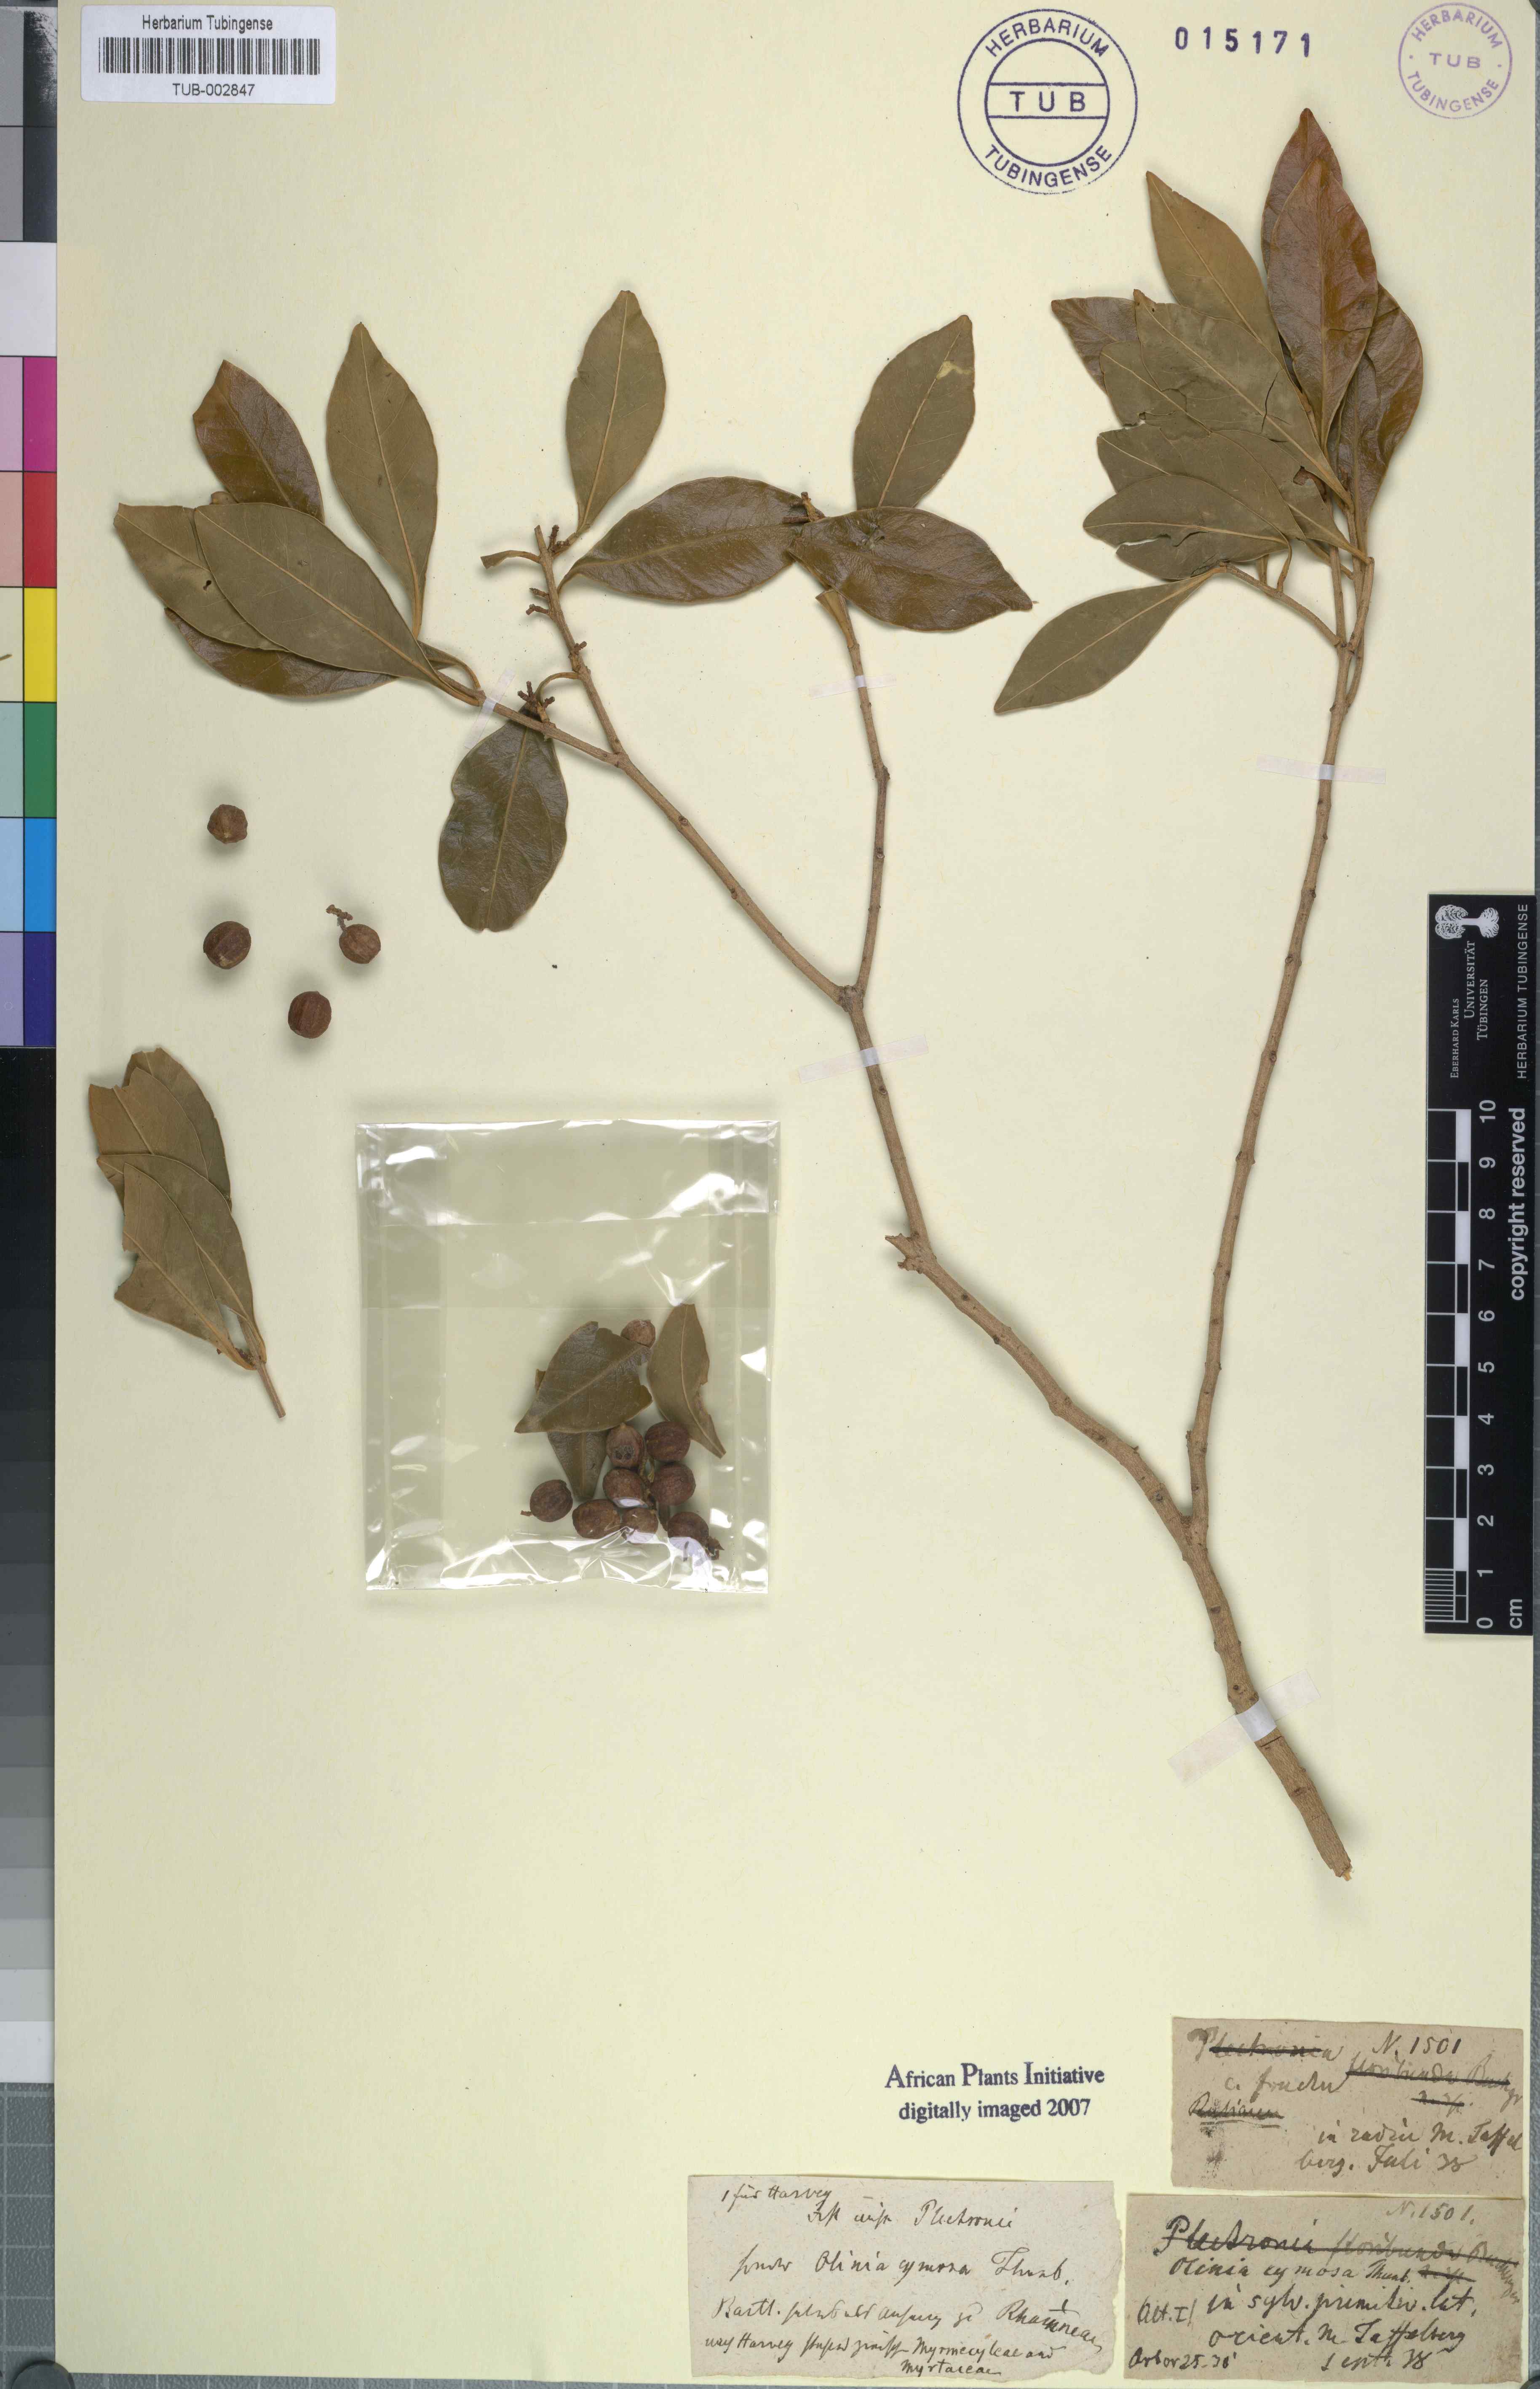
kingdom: Plantae
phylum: Tracheophyta
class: Magnoliopsida
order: Myrtales
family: Penaeaceae
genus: Olinia
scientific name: Olinia ventosa
